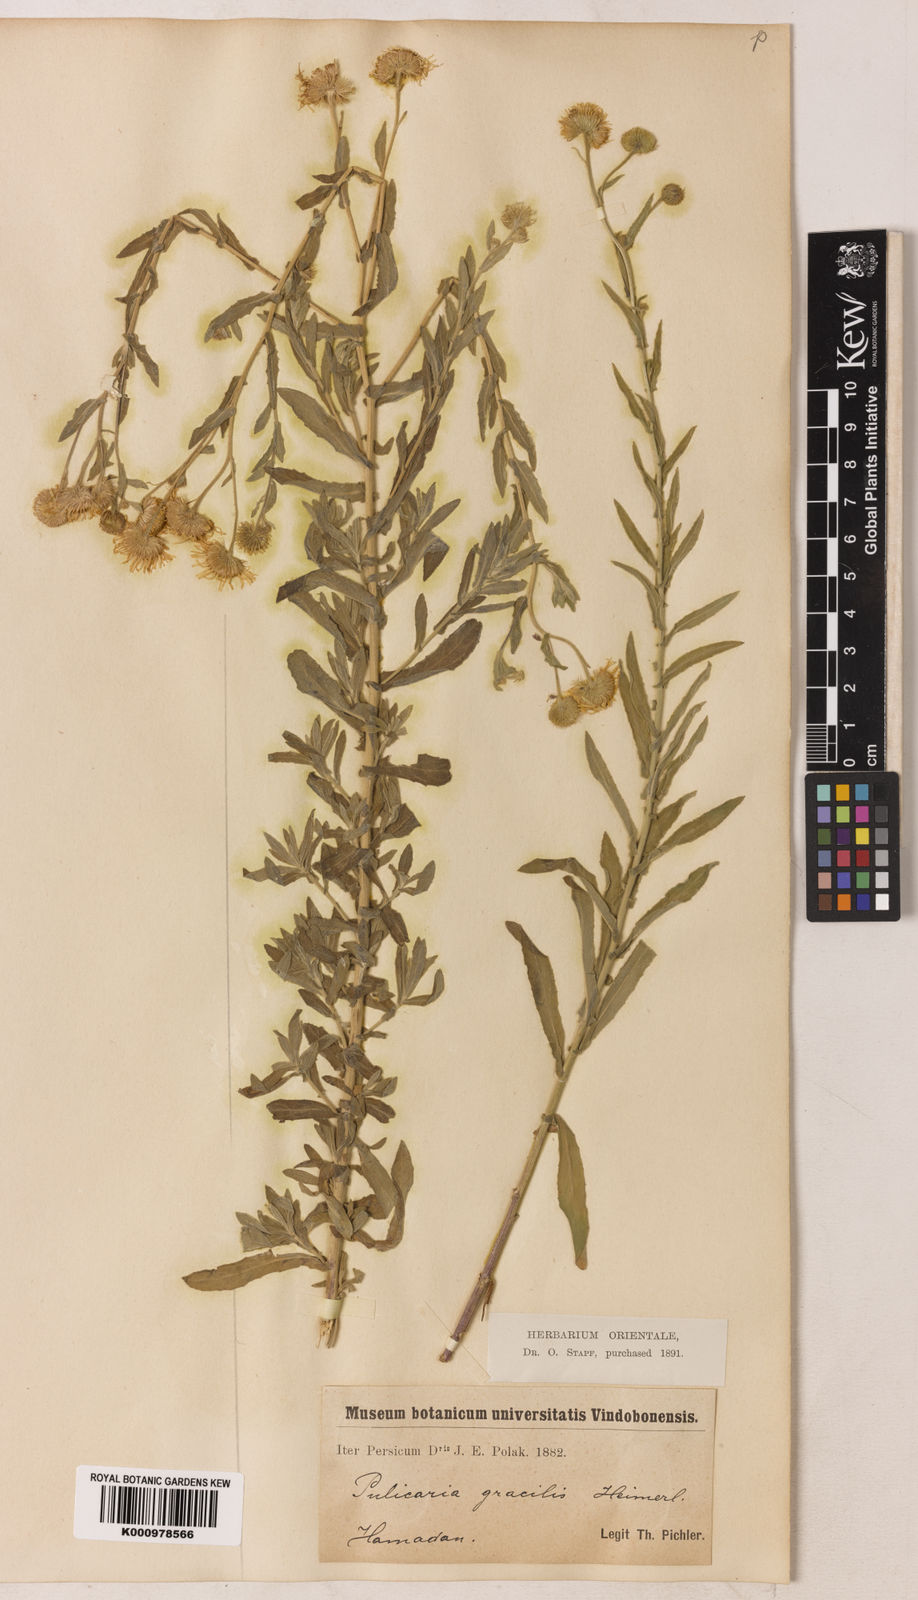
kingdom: Plantae
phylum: Tracheophyta
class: Magnoliopsida
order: Asterales
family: Asteraceae
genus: Pulicaria
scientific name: Pulicaria
